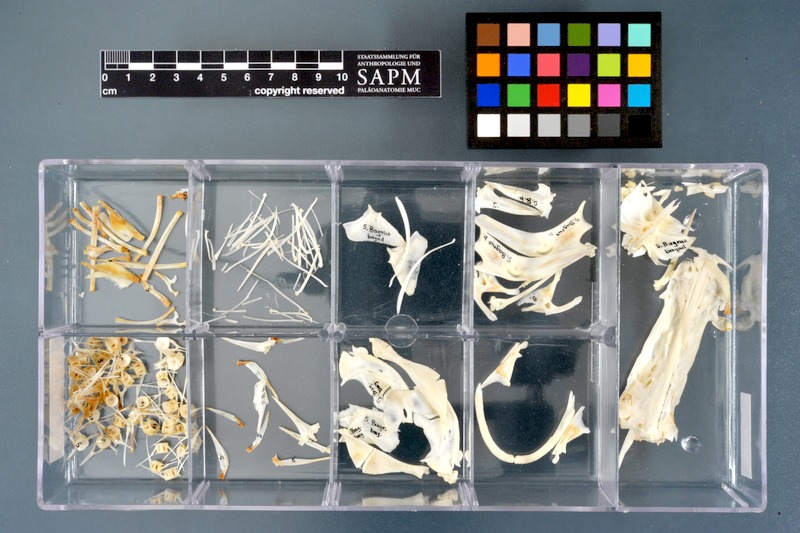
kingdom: Animalia
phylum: Chordata
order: Siluriformes
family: Bagridae
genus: Bagrus
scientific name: Bagrus bajad
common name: Bayad
